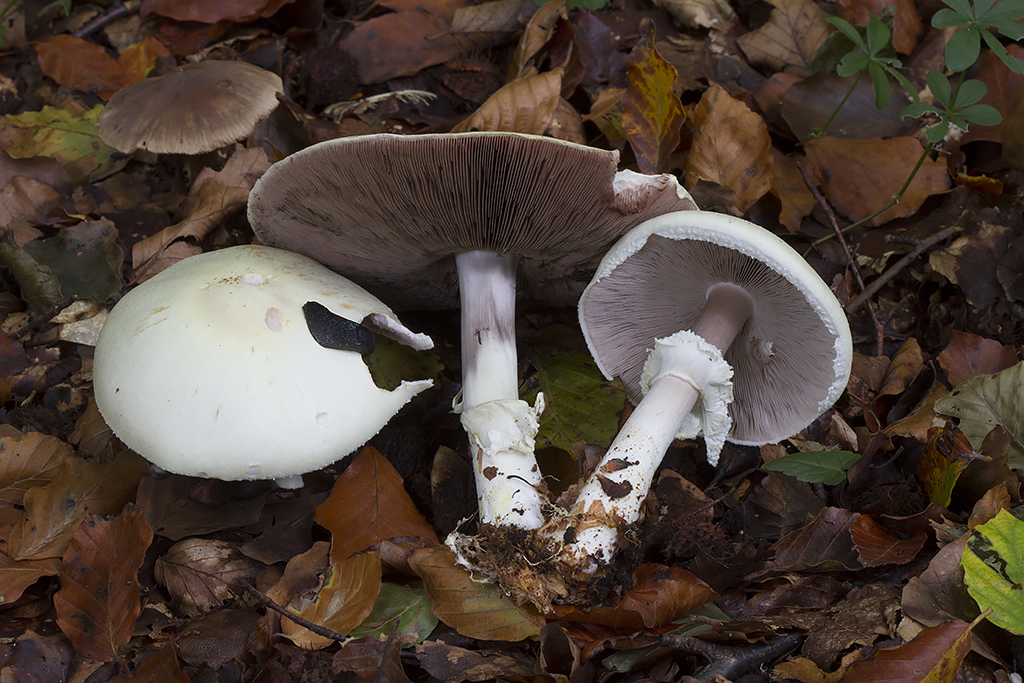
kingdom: Fungi
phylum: Basidiomycota
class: Agaricomycetes
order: Agaricales
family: Agaricaceae
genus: Agaricus
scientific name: Agaricus sylvicola
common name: gulhvid champignon
